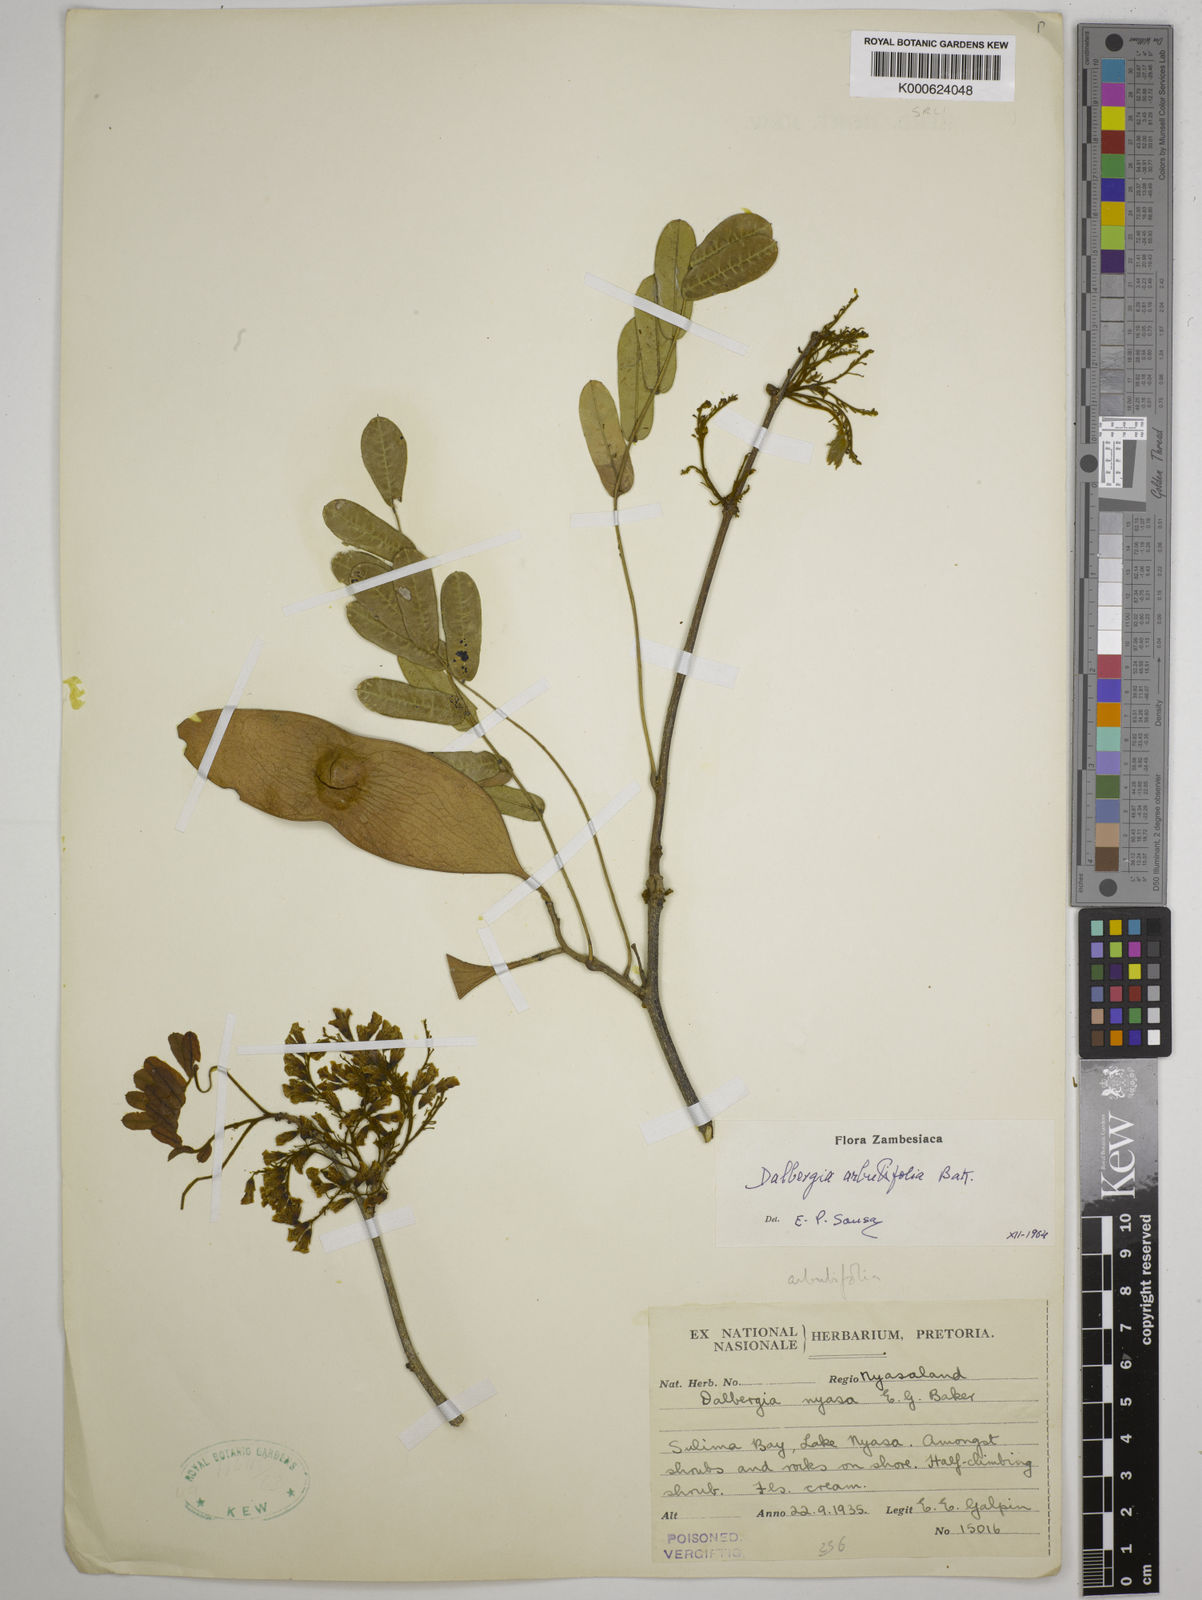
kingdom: Plantae
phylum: Tracheophyta
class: Magnoliopsida
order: Fabales
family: Fabaceae
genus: Dalbergia
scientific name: Dalbergia arbutifolia
